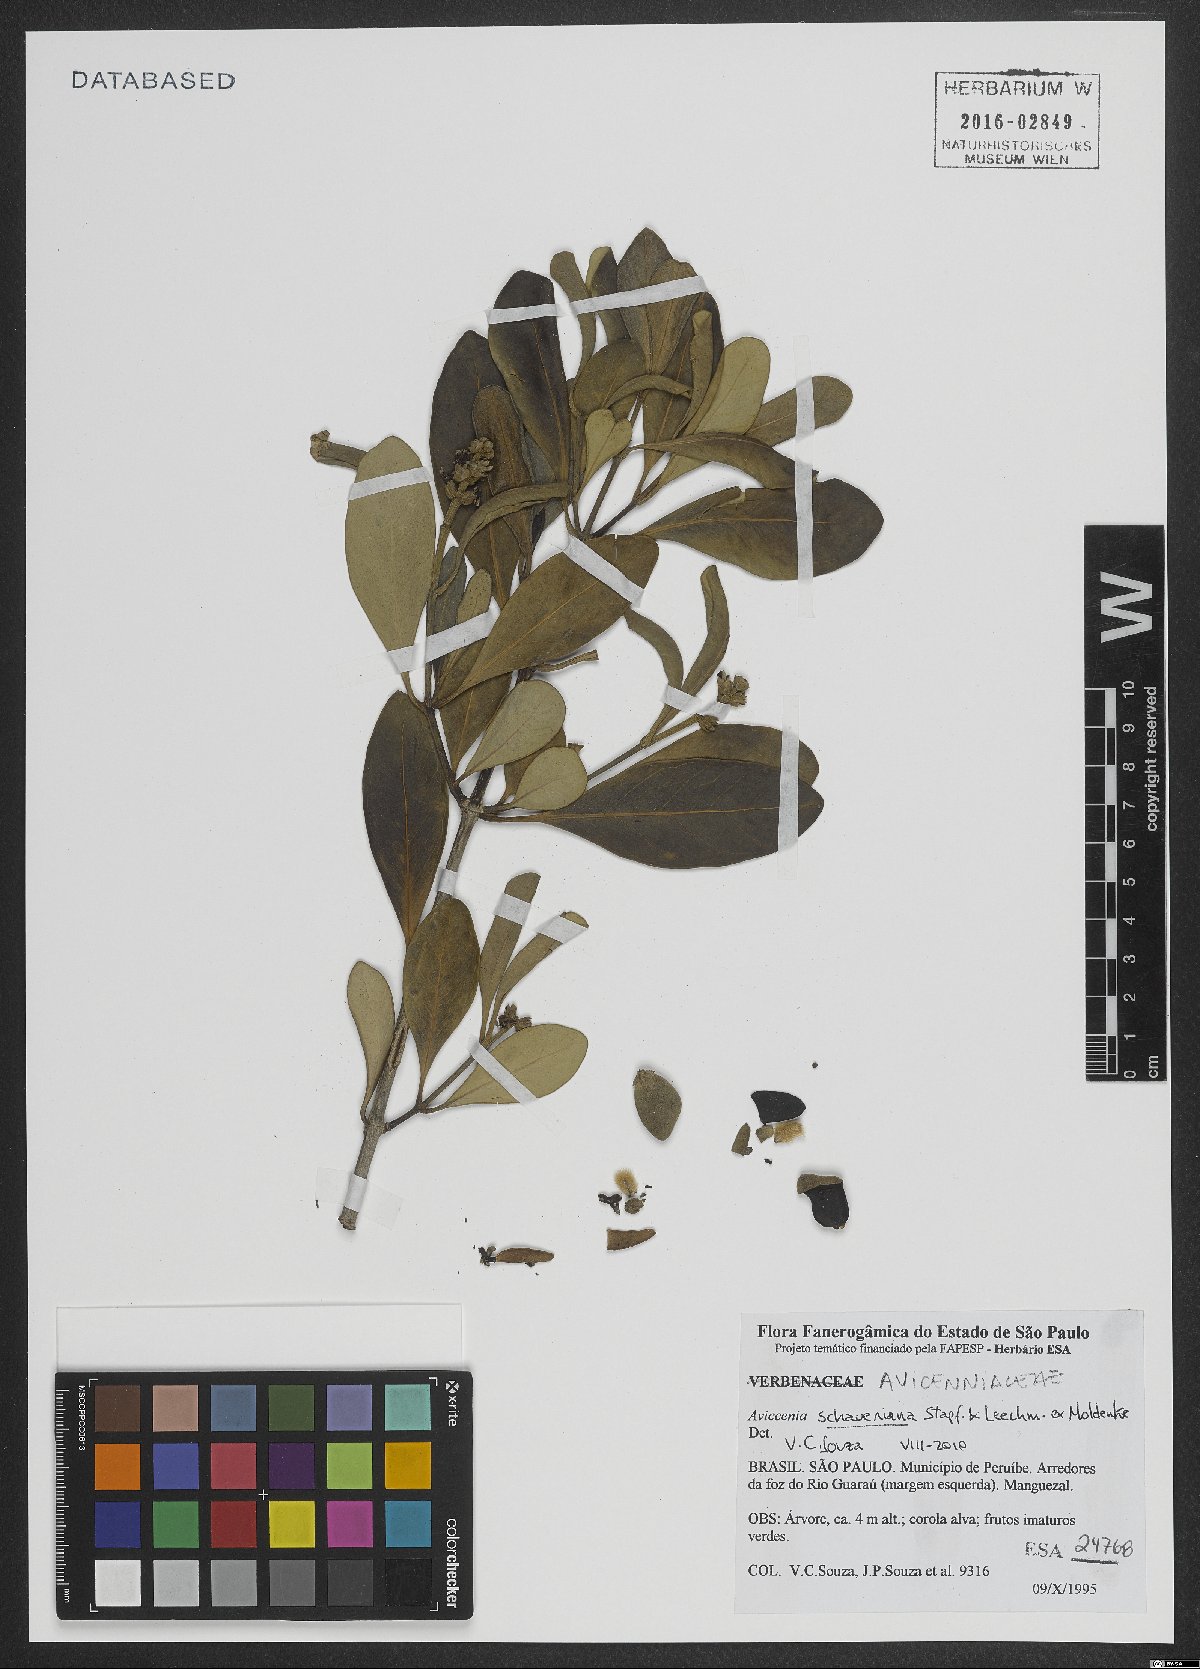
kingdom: Plantae
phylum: Tracheophyta
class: Magnoliopsida
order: Lamiales
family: Acanthaceae
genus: Avicennia
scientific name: Avicennia schaueriana
